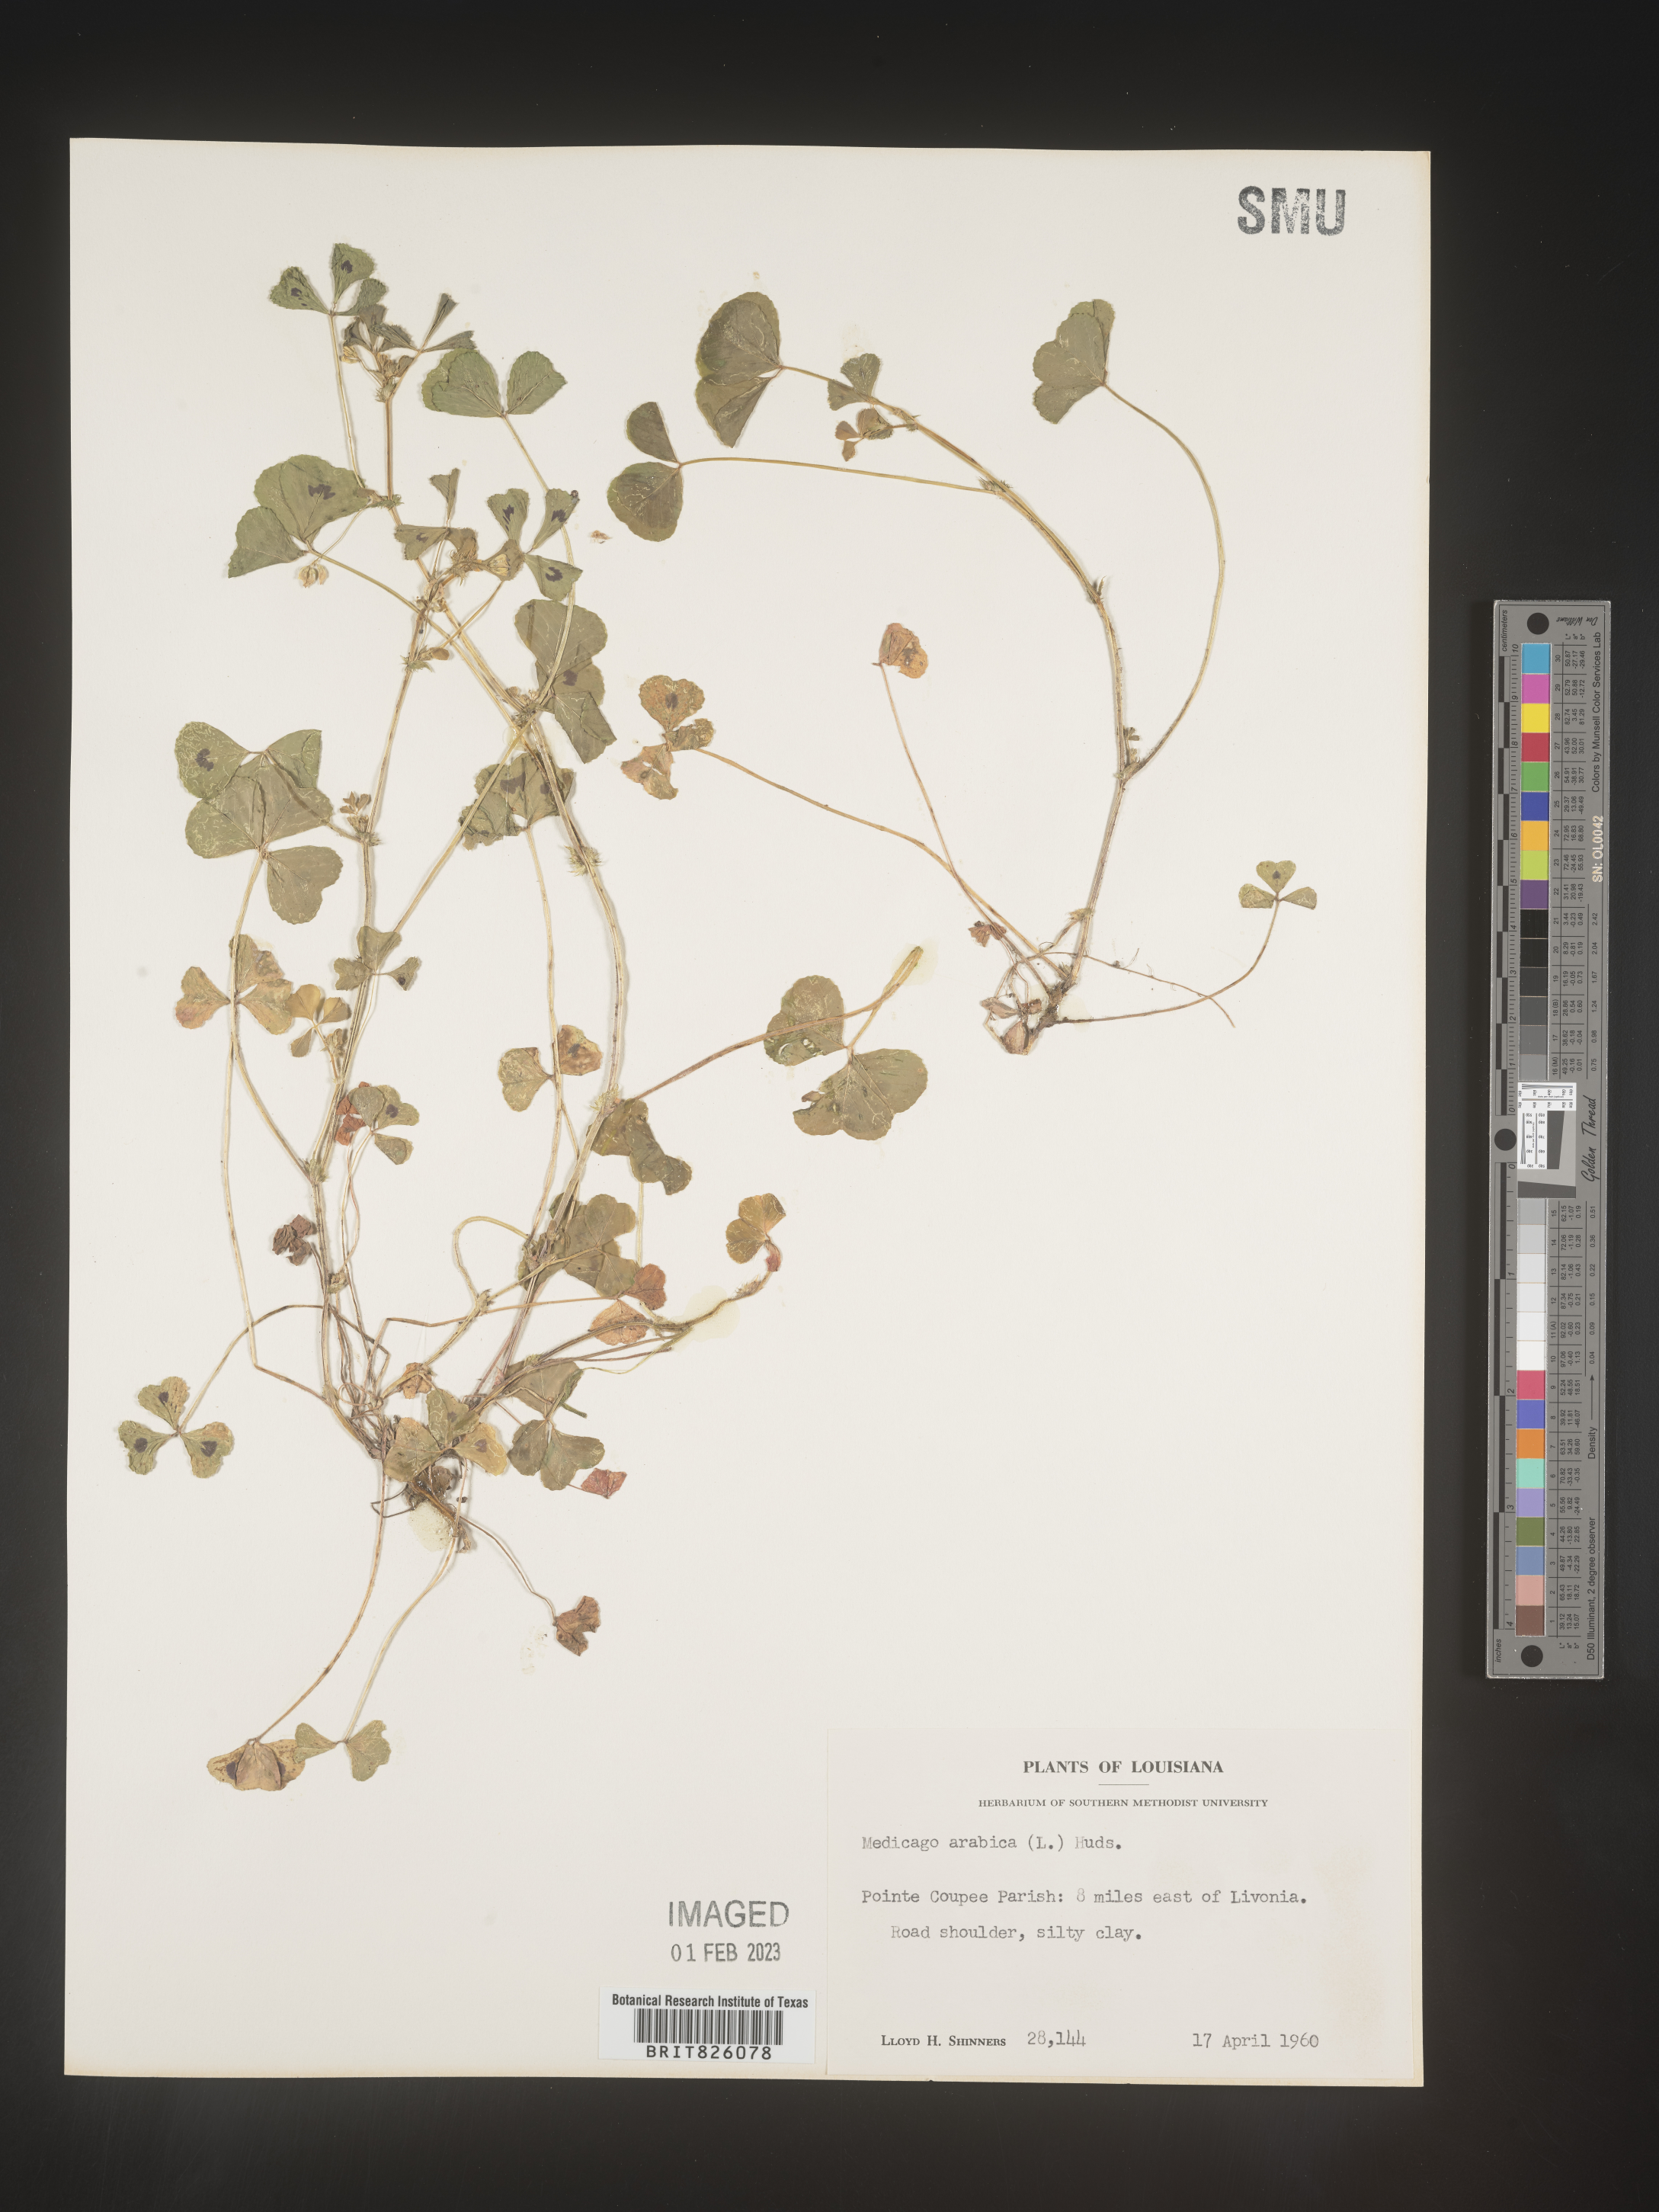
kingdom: Plantae
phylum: Tracheophyta
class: Magnoliopsida
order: Fabales
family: Fabaceae
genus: Medicago
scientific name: Medicago arabica
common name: Spotted medick
